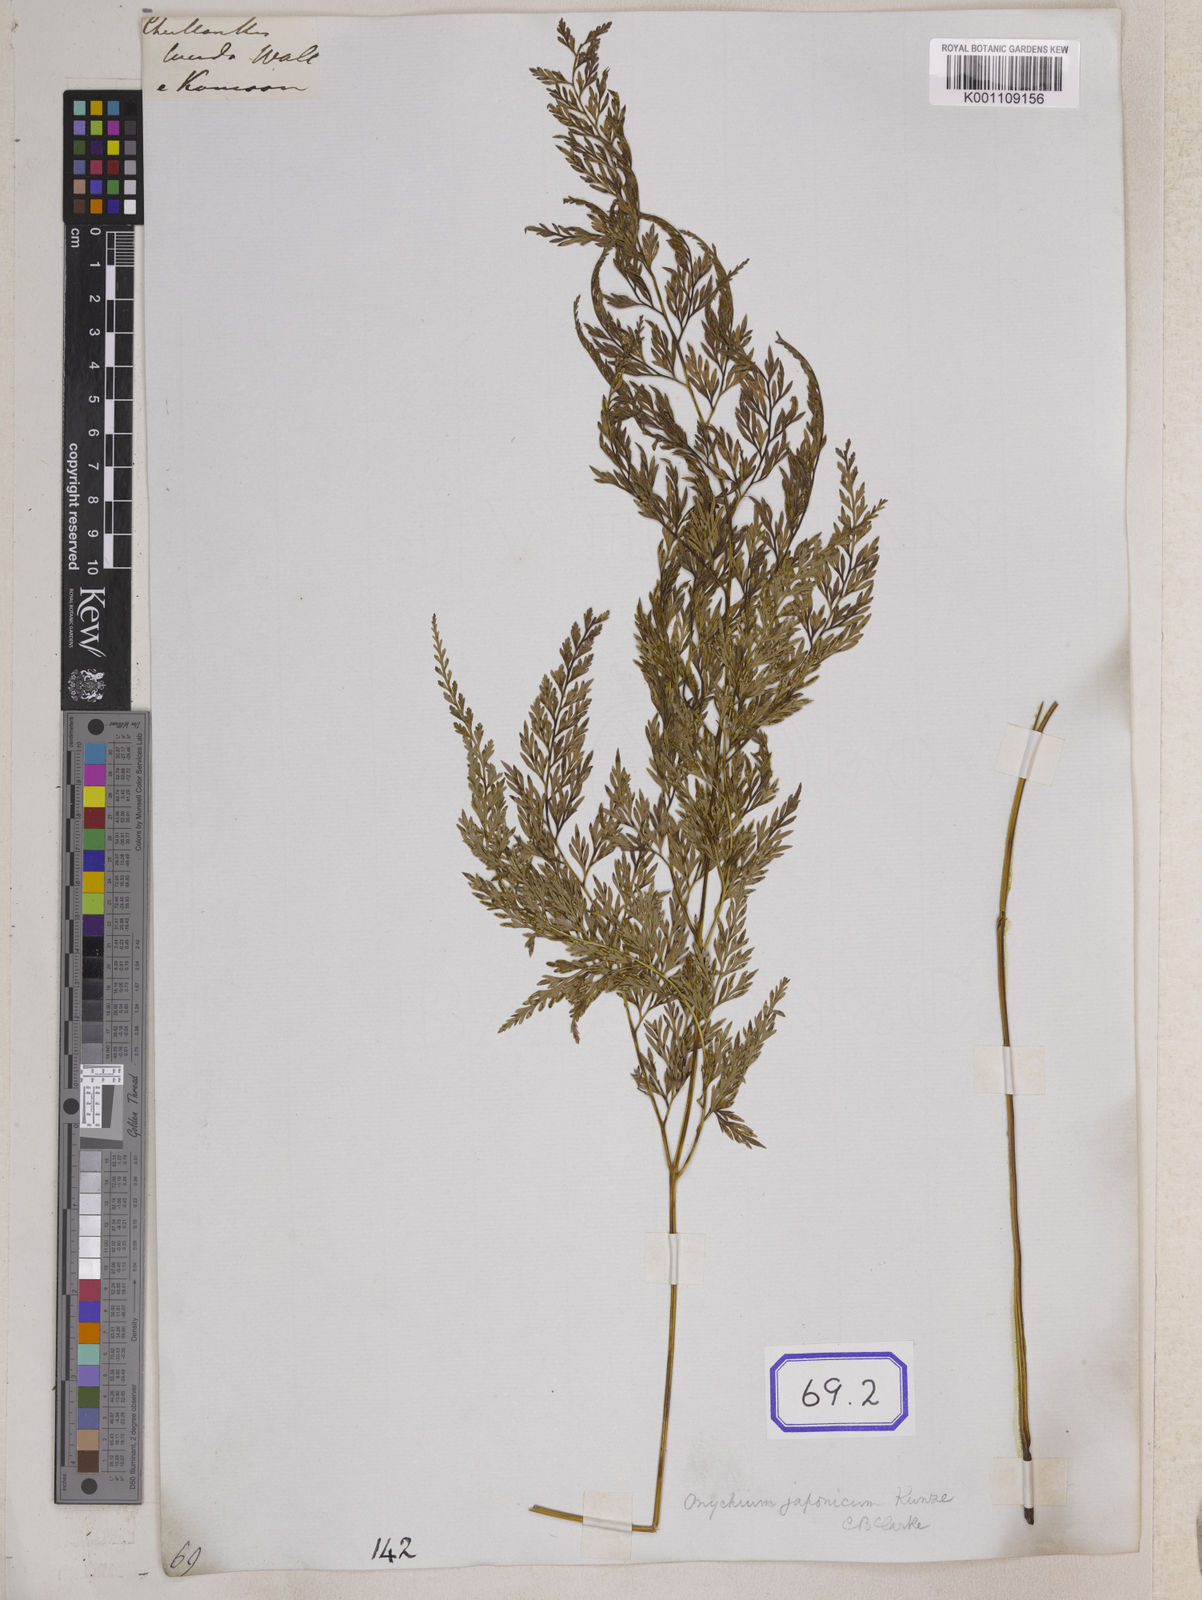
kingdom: Plantae
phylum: Tracheophyta
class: Polypodiopsida
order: Polypodiales
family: Pteridaceae
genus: Onychium
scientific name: Onychium vermae
